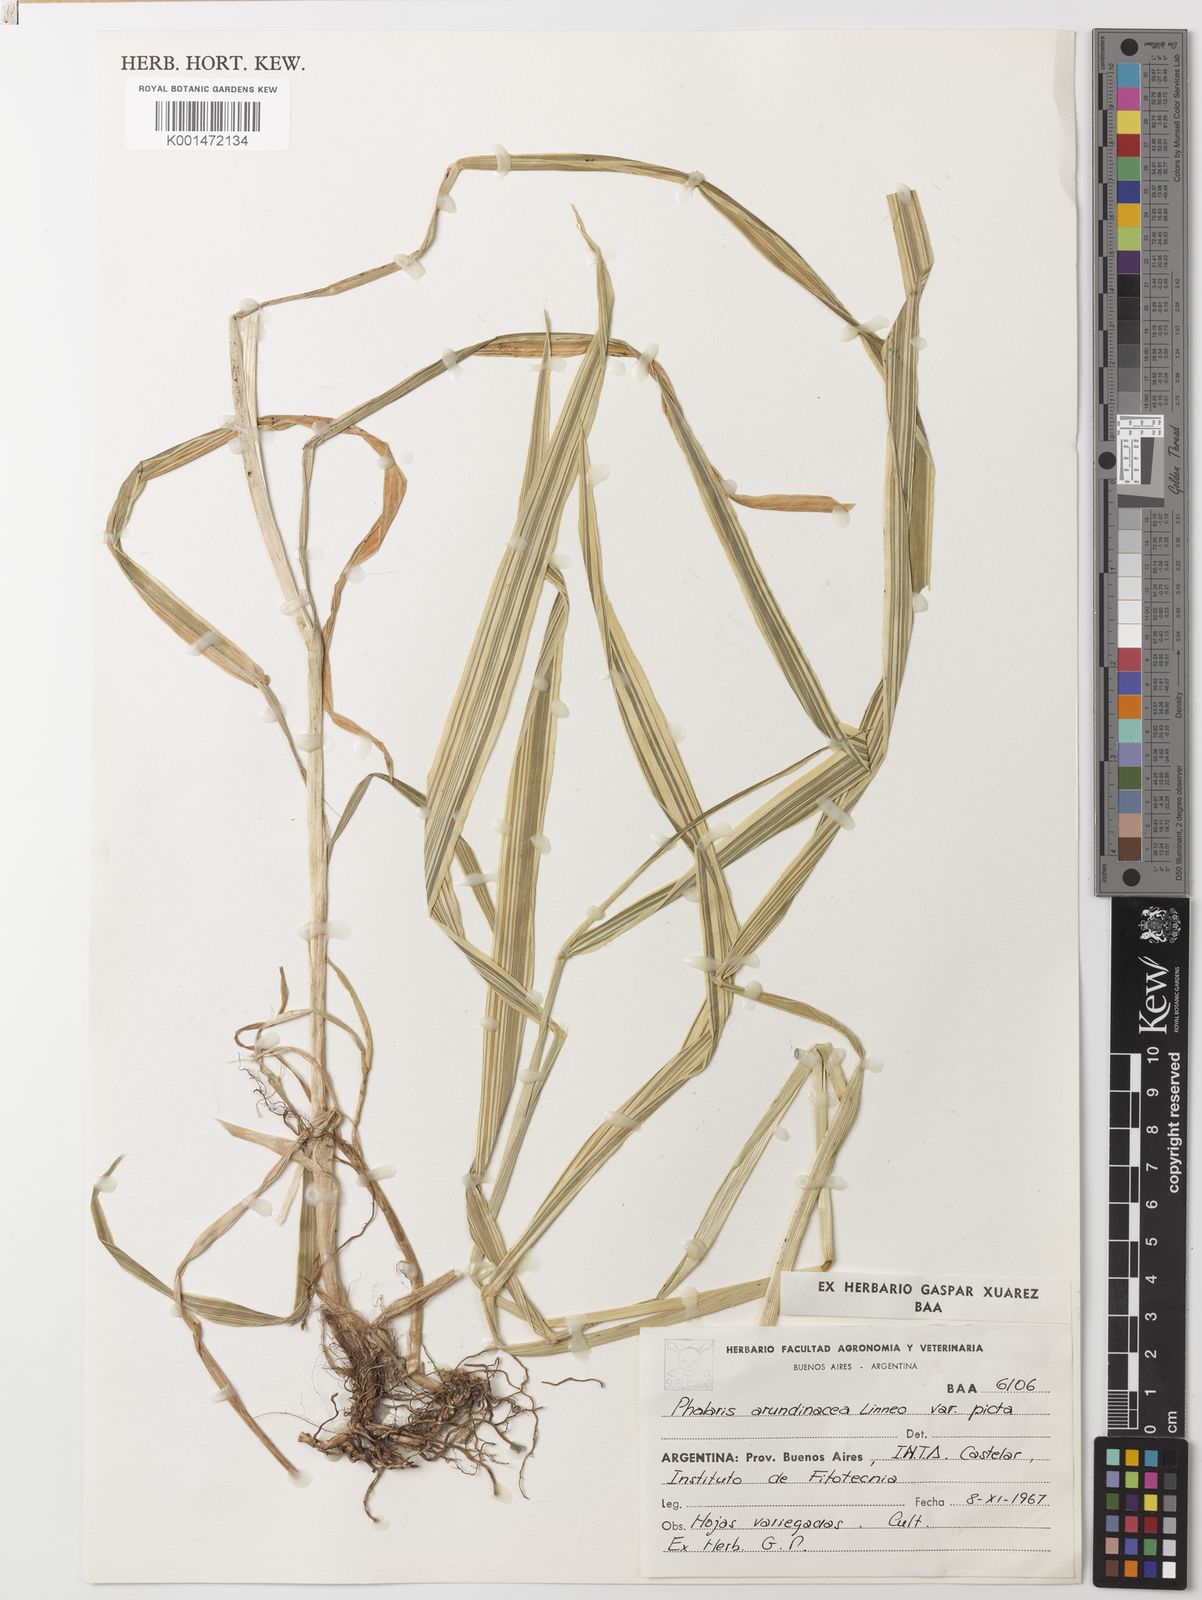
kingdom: Plantae
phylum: Tracheophyta
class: Liliopsida
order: Poales
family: Poaceae
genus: Phalaris
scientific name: Phalaris arundinacea
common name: Reed canary-grass
